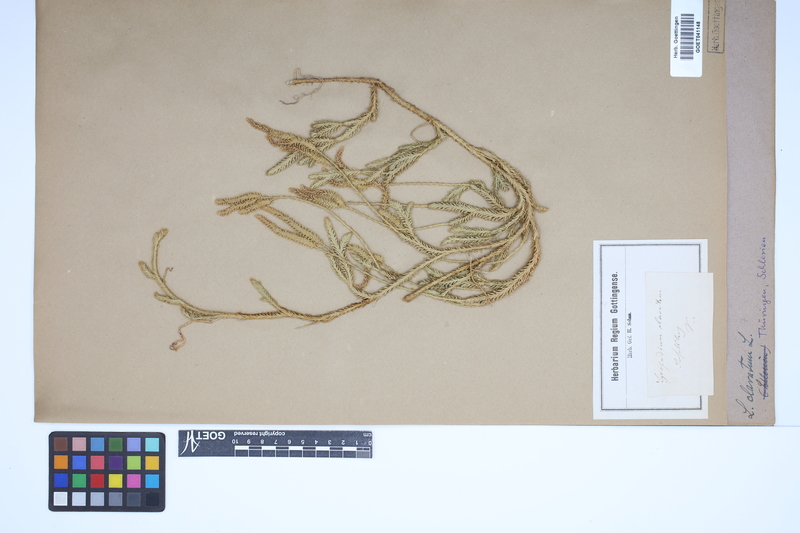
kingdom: Plantae
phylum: Tracheophyta
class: Lycopodiopsida
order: Lycopodiales
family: Lycopodiaceae
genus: Lycopodium
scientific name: Lycopodium clavatum
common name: Stag's-horn clubmoss
